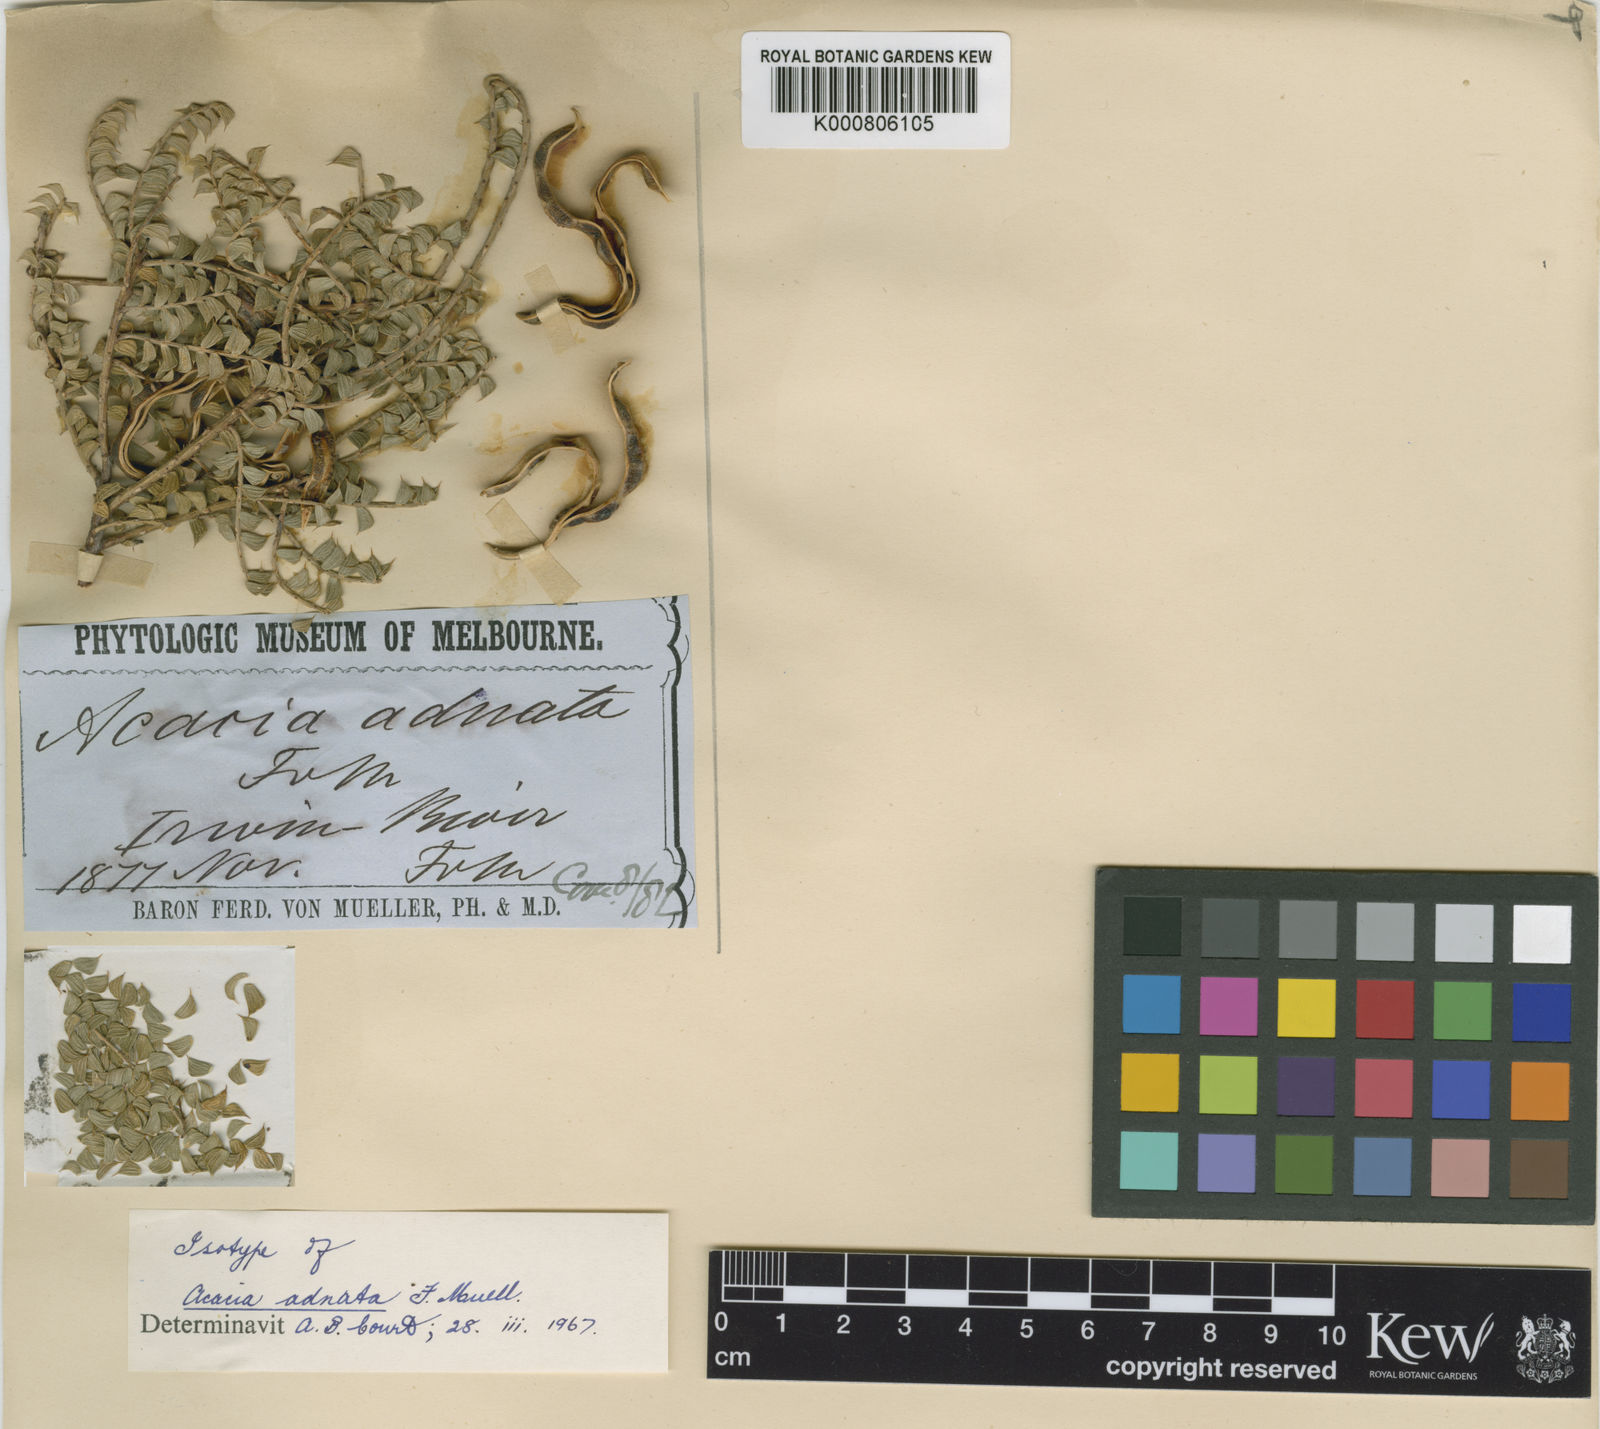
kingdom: Plantae
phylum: Tracheophyta
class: Magnoliopsida
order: Fabales
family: Fabaceae
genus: Acacia
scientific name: Acacia adnata
